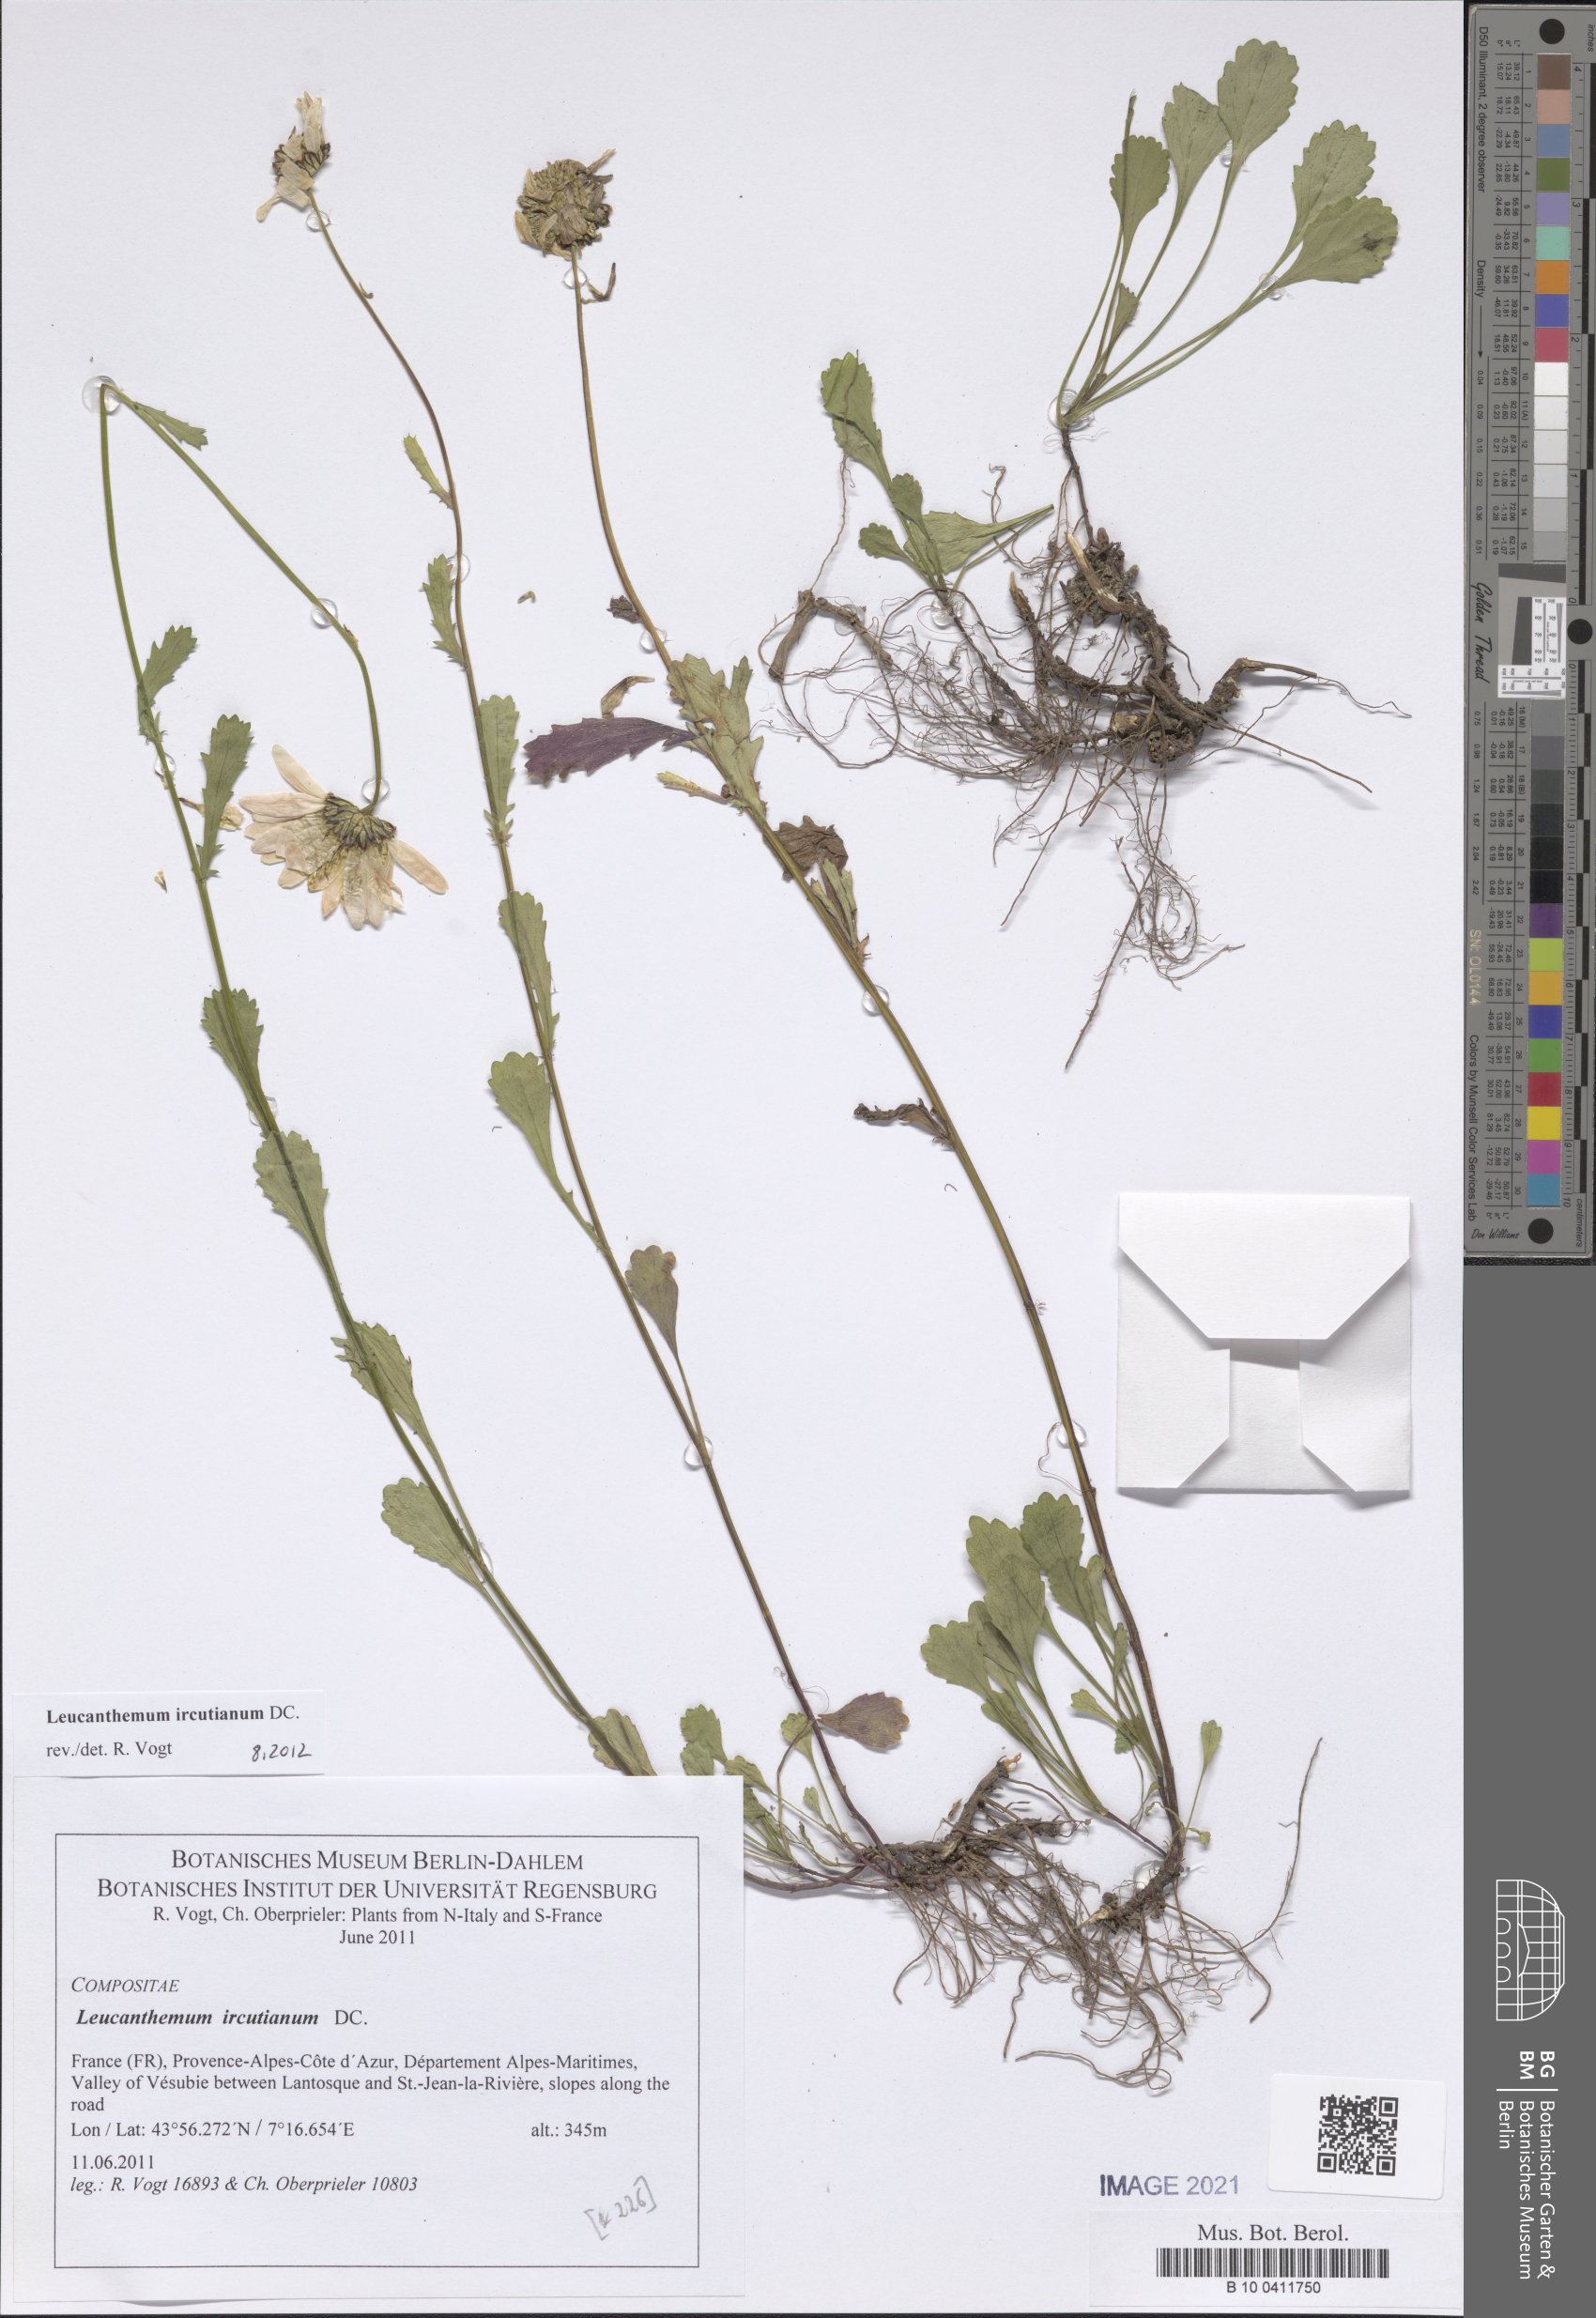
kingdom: Plantae
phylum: Tracheophyta
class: Magnoliopsida
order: Asterales
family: Asteraceae
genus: Leucanthemum
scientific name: Leucanthemum ircutianum
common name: Daisy
